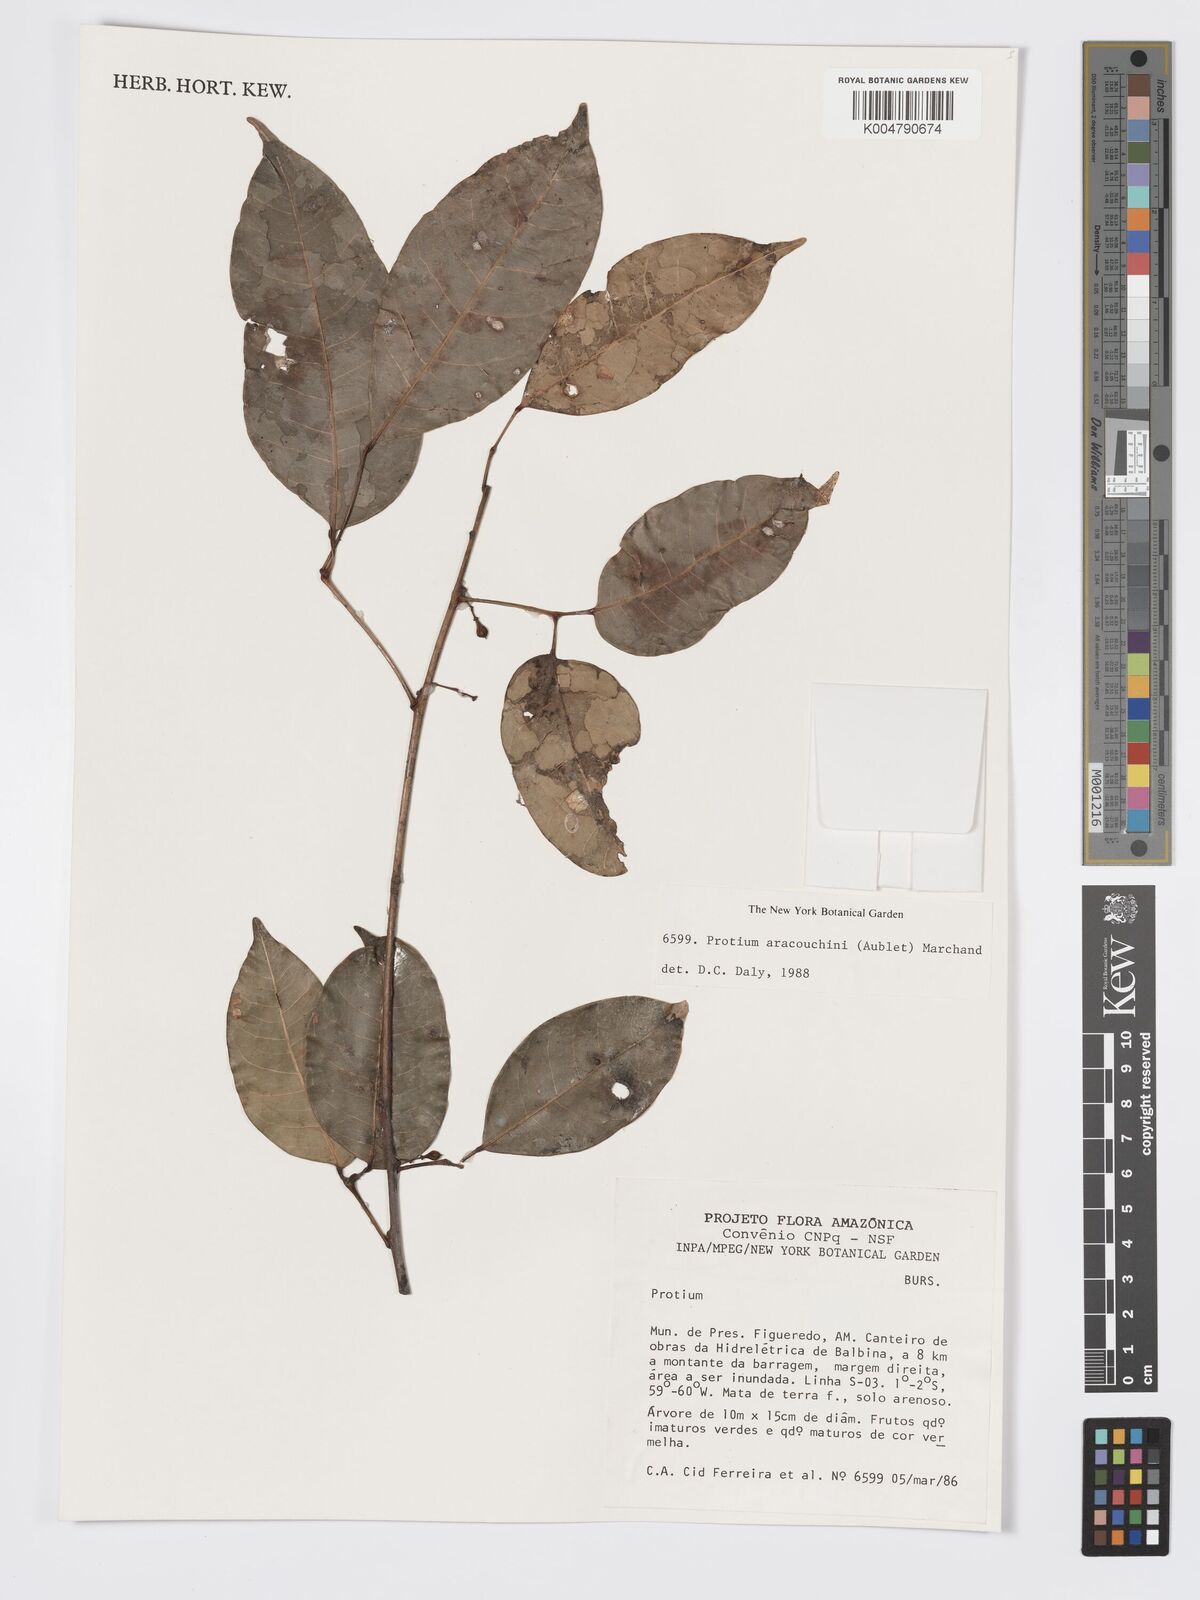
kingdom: Plantae
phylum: Tracheophyta
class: Magnoliopsida
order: Sapindales
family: Burseraceae
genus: Protium
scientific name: Protium aracouchini
